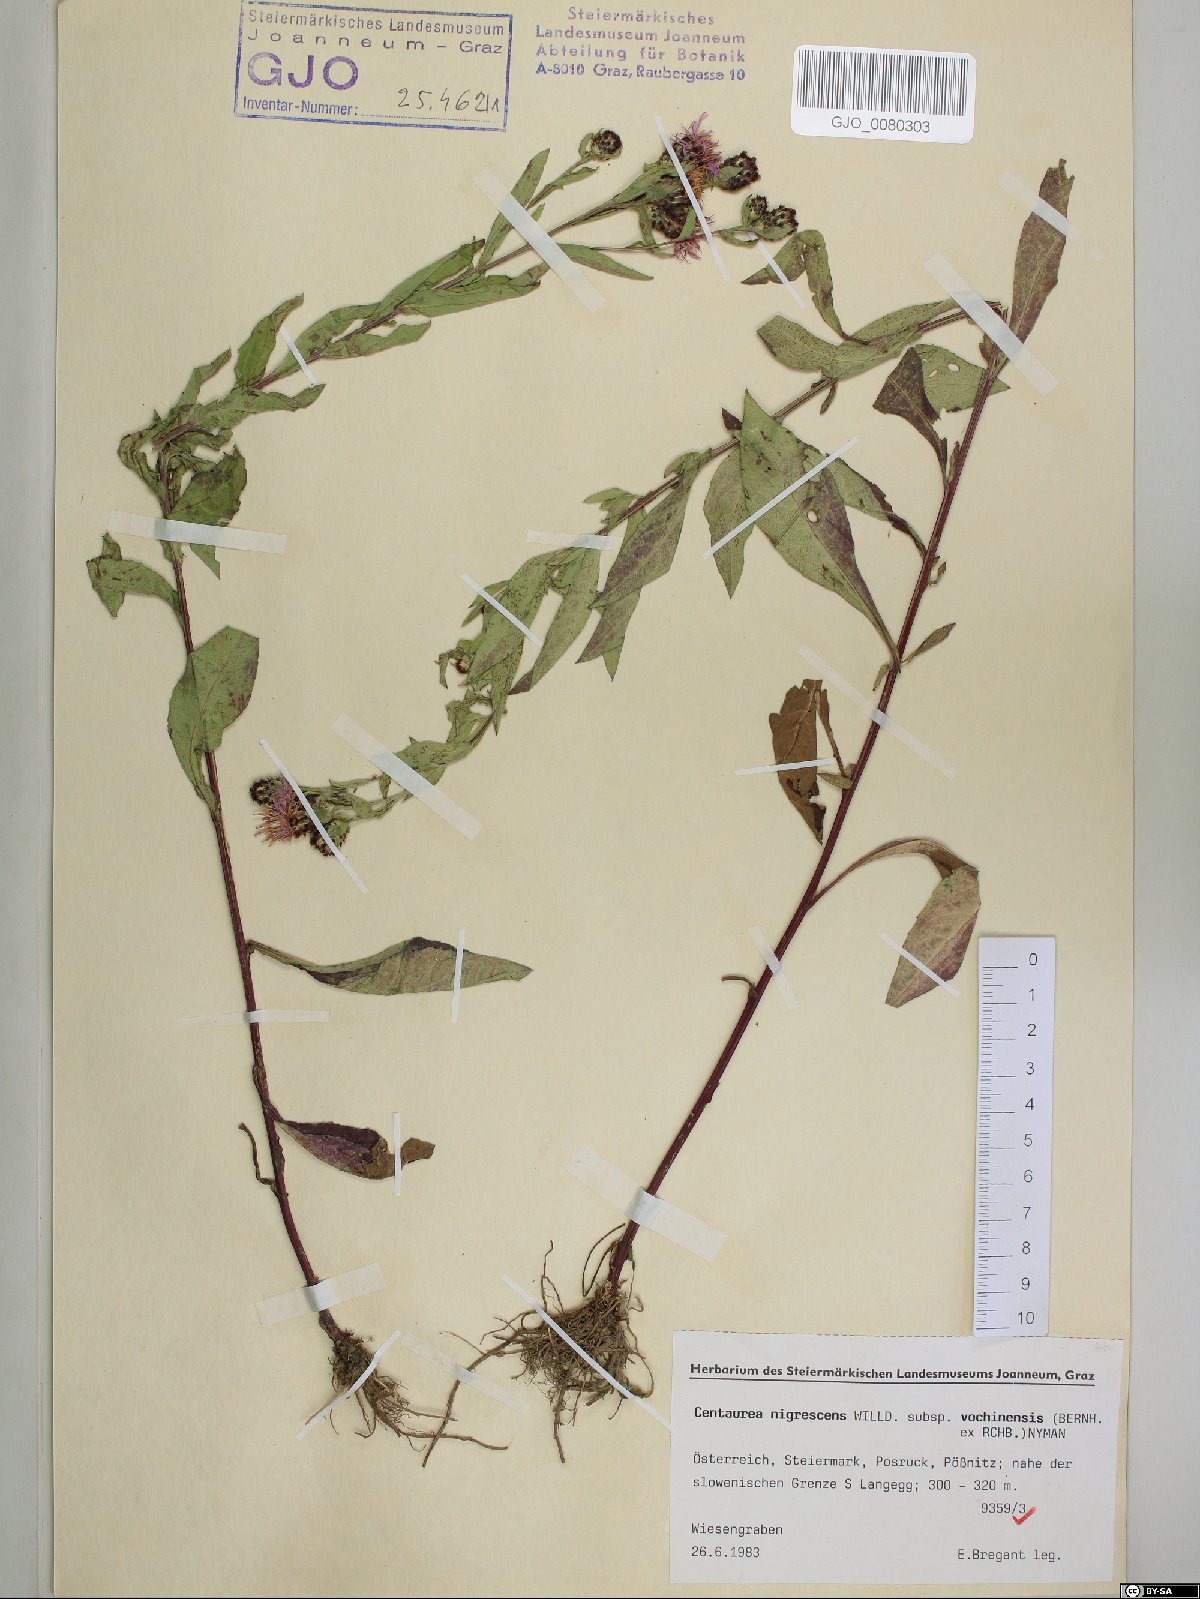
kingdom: Plantae
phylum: Tracheophyta
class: Magnoliopsida
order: Asterales
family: Asteraceae
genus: Centaurea
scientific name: Centaurea carniolica
